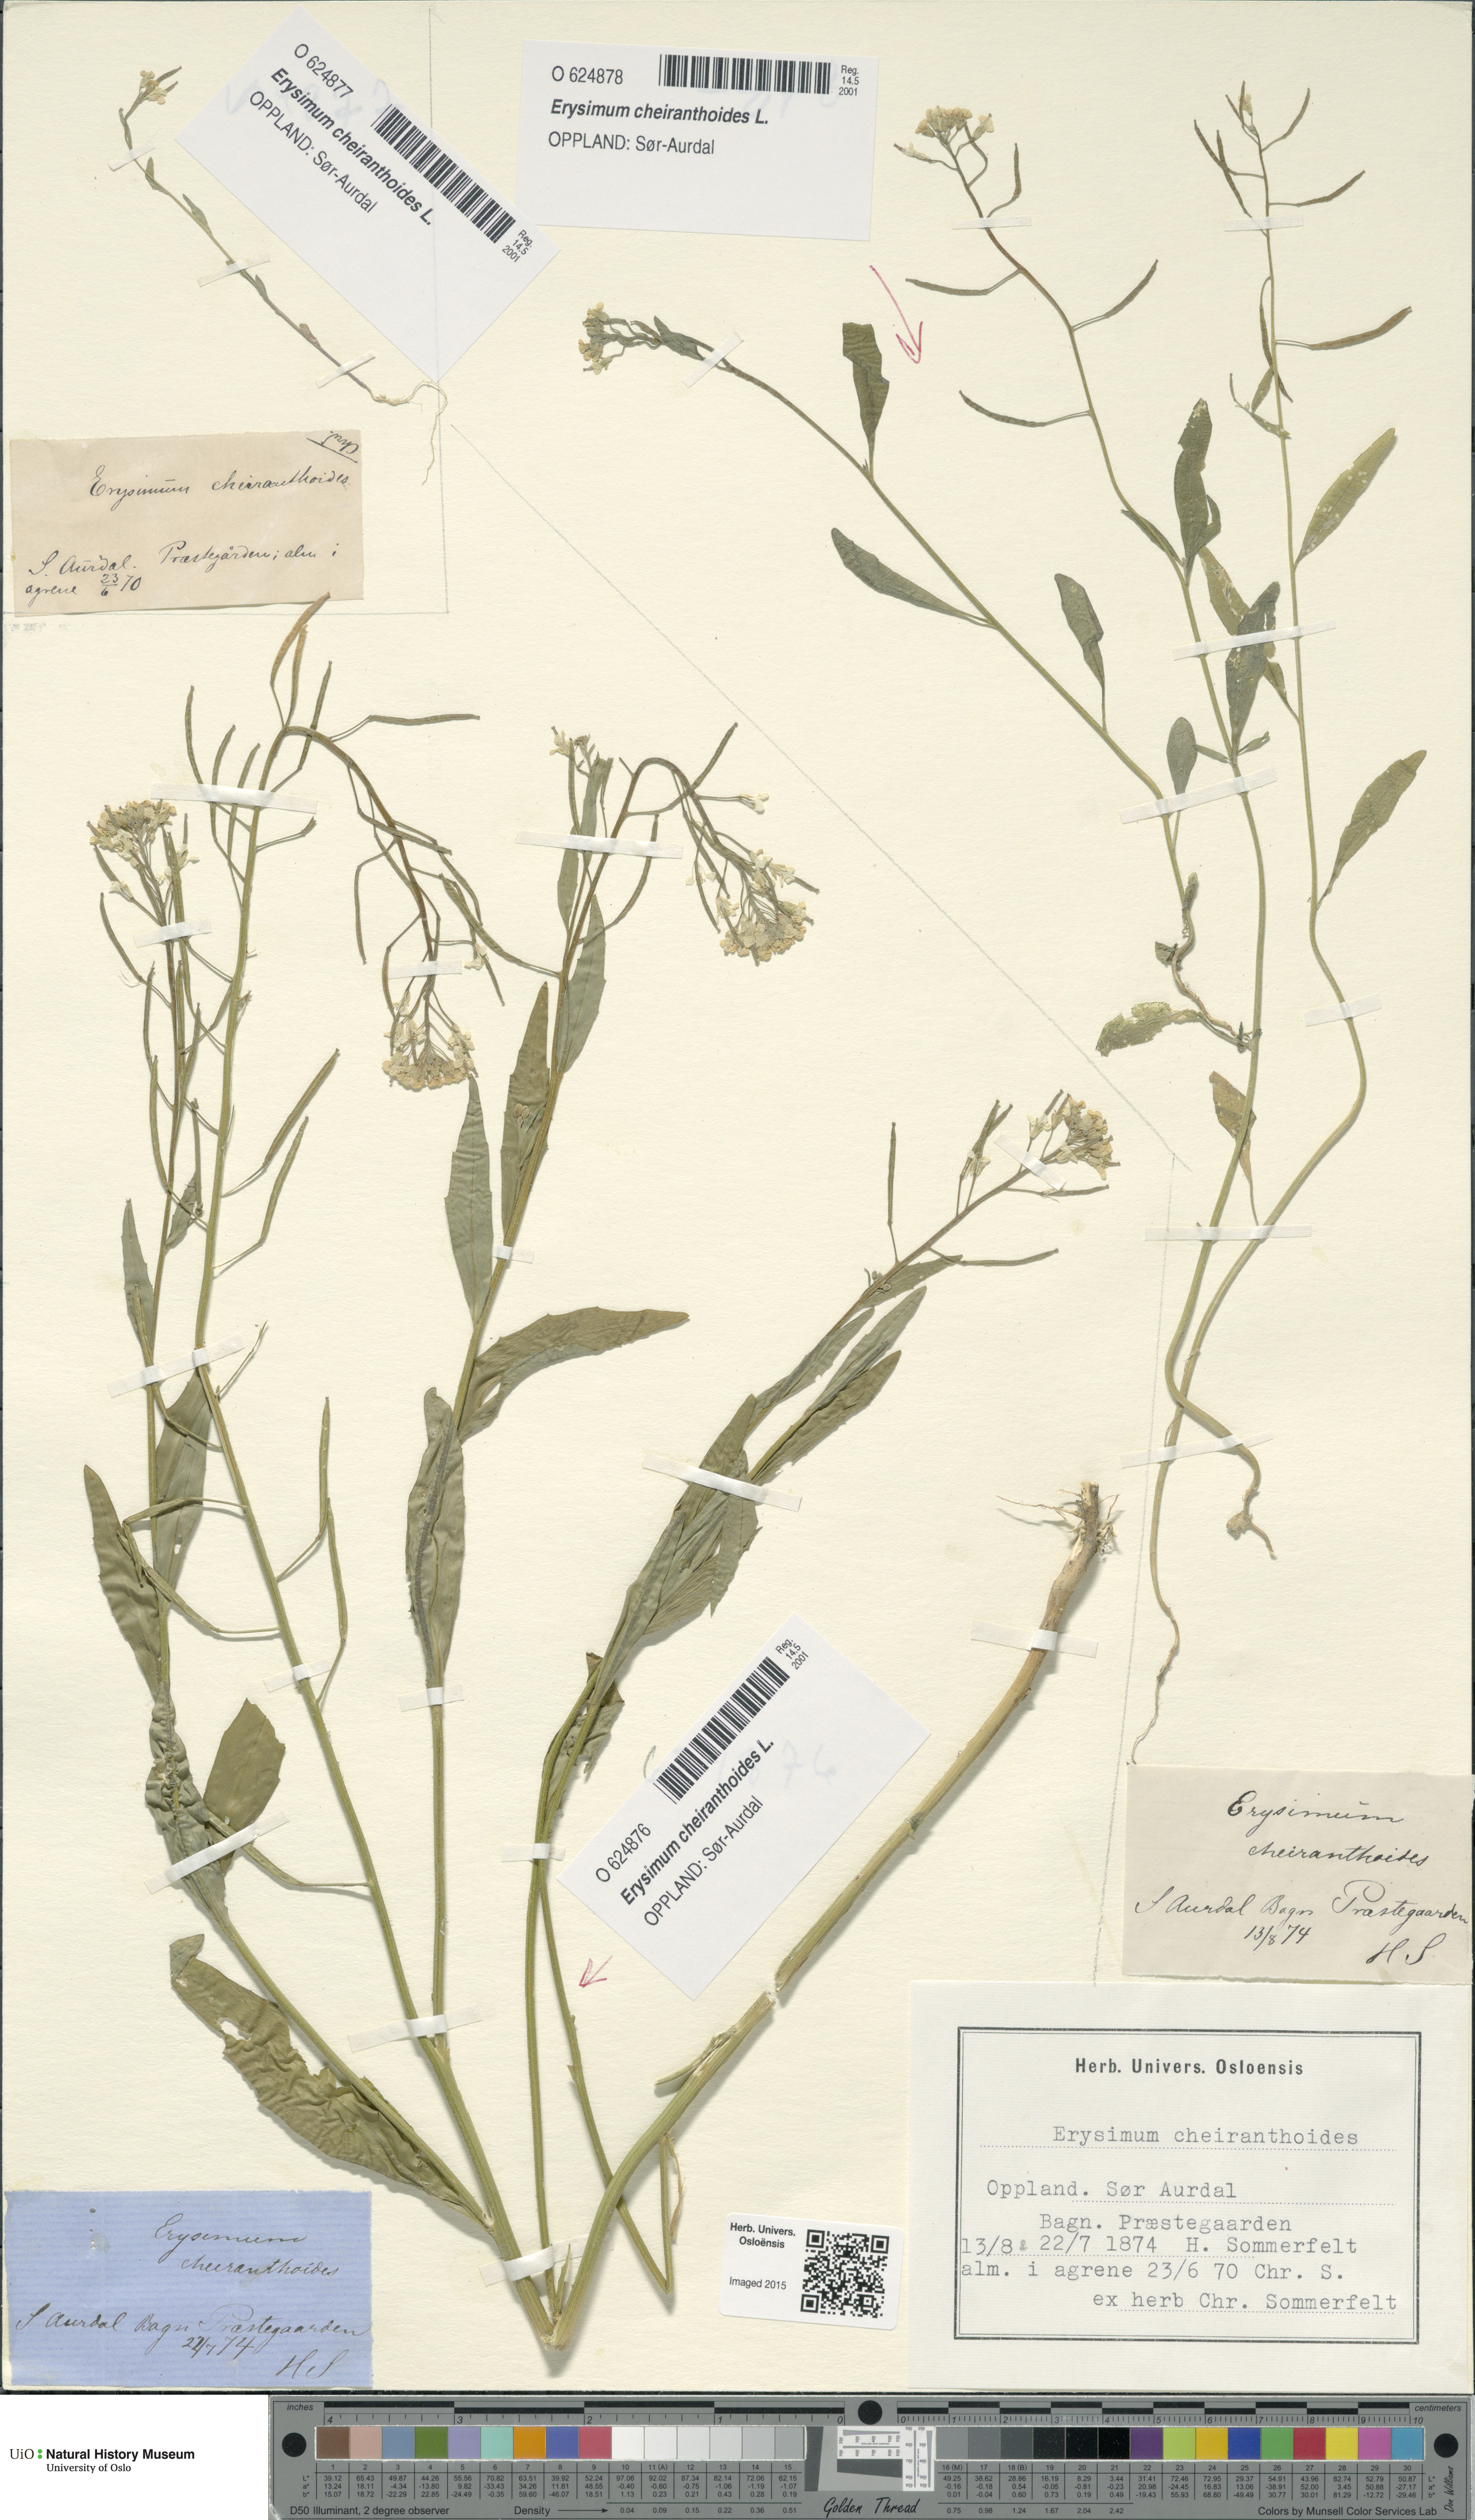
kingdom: Plantae
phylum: Tracheophyta
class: Magnoliopsida
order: Brassicales
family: Brassicaceae
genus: Erysimum
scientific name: Erysimum cheiranthoides
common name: Treacle mustard
